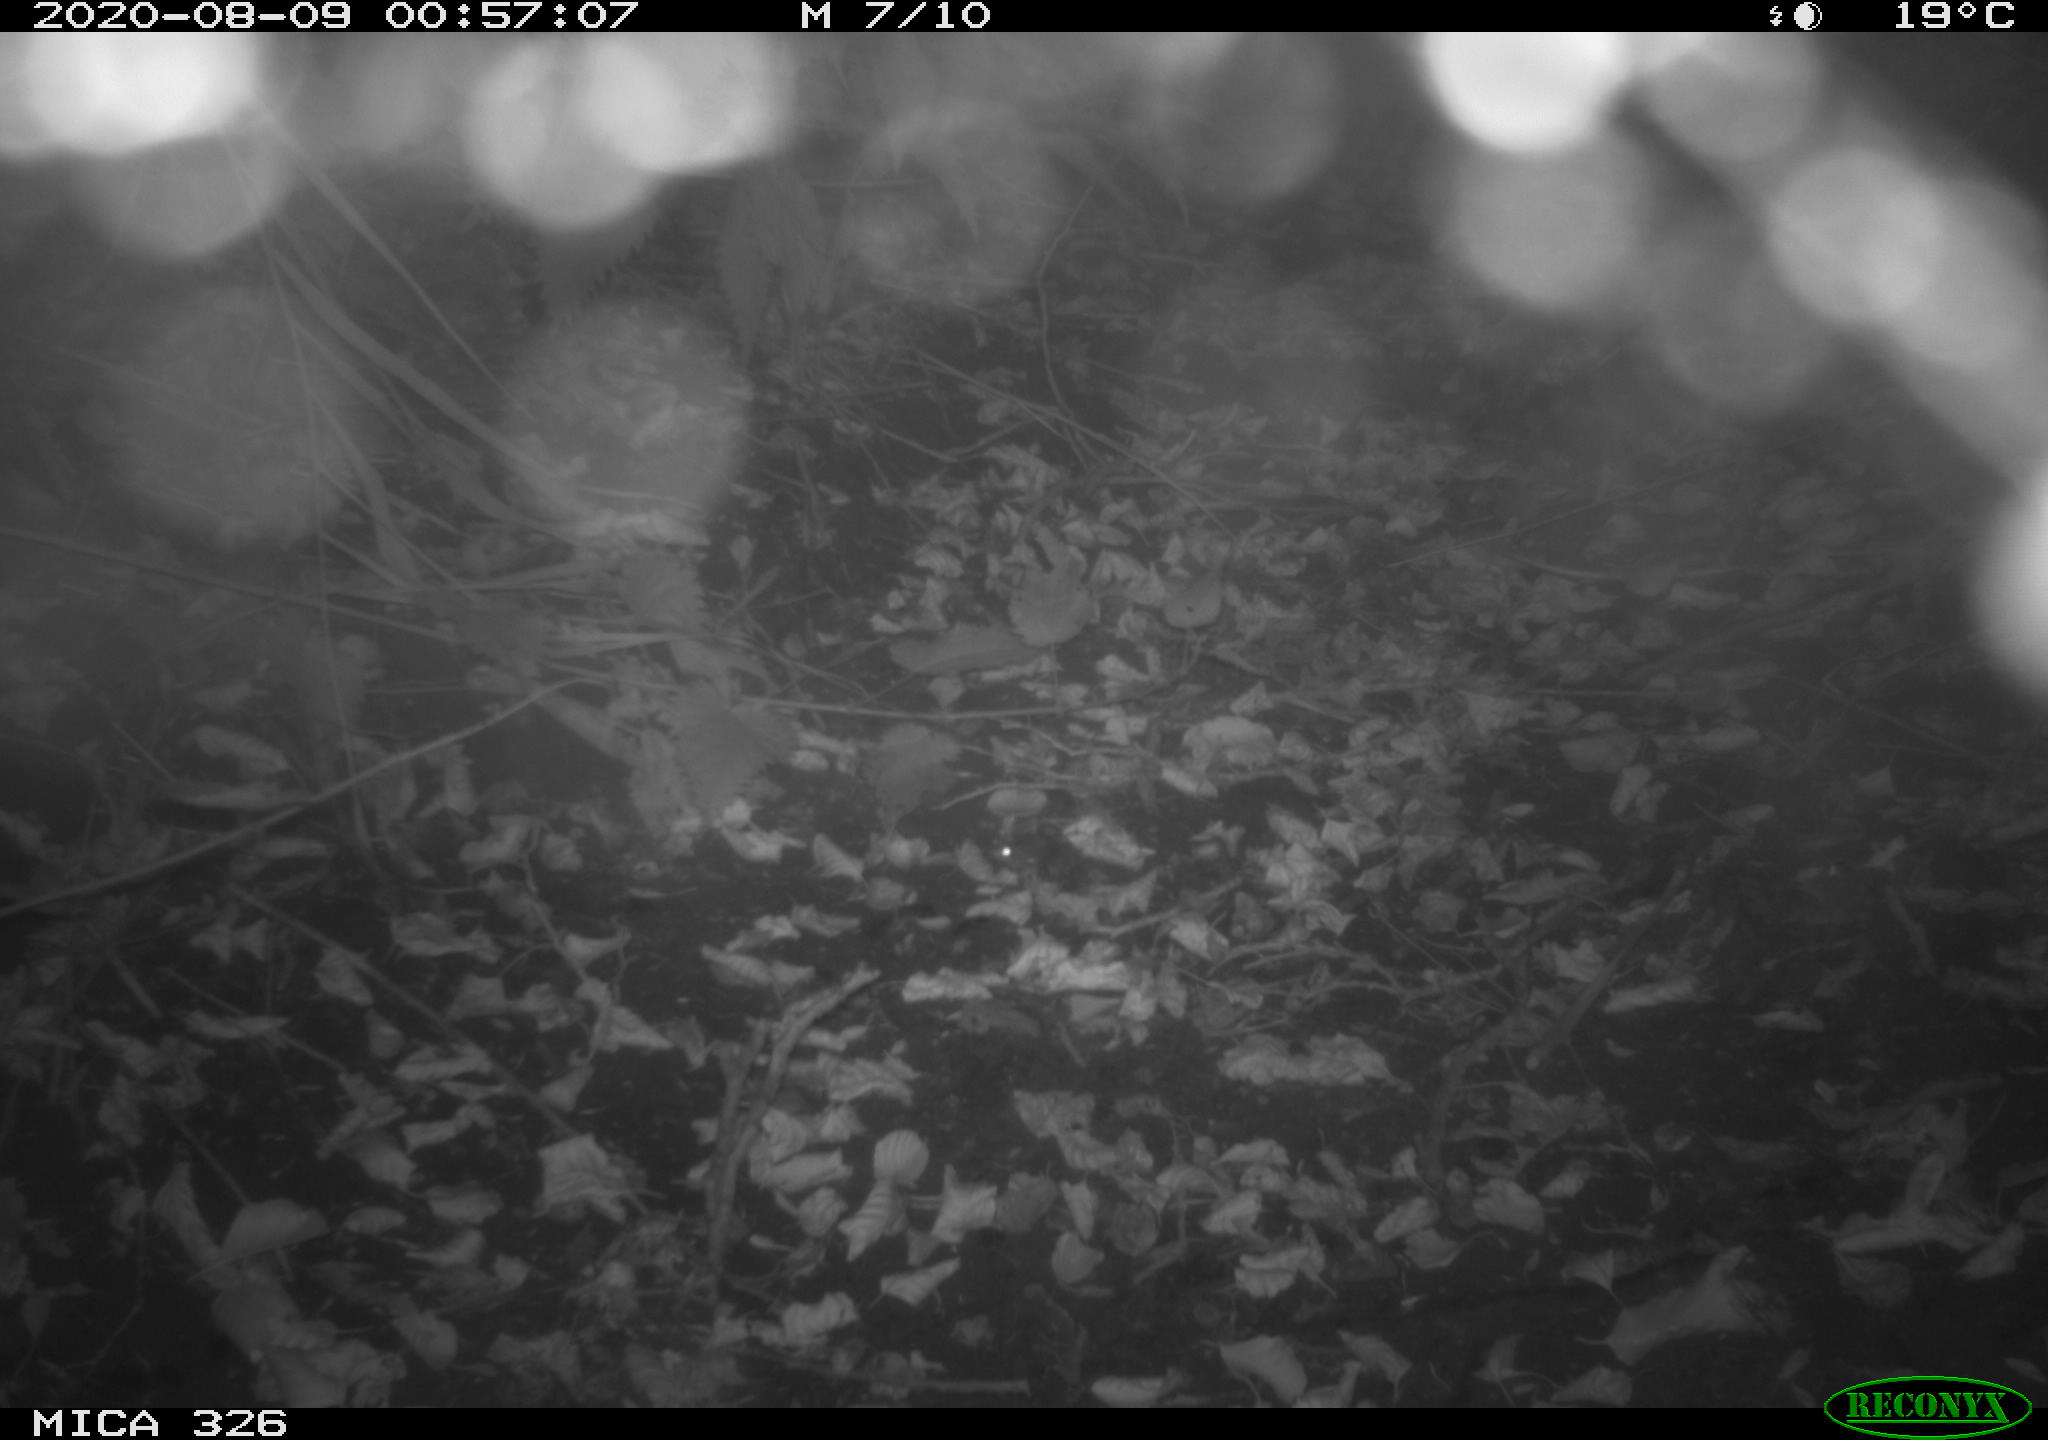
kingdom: Animalia
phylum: Chordata
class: Mammalia
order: Rodentia
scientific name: Rodentia
